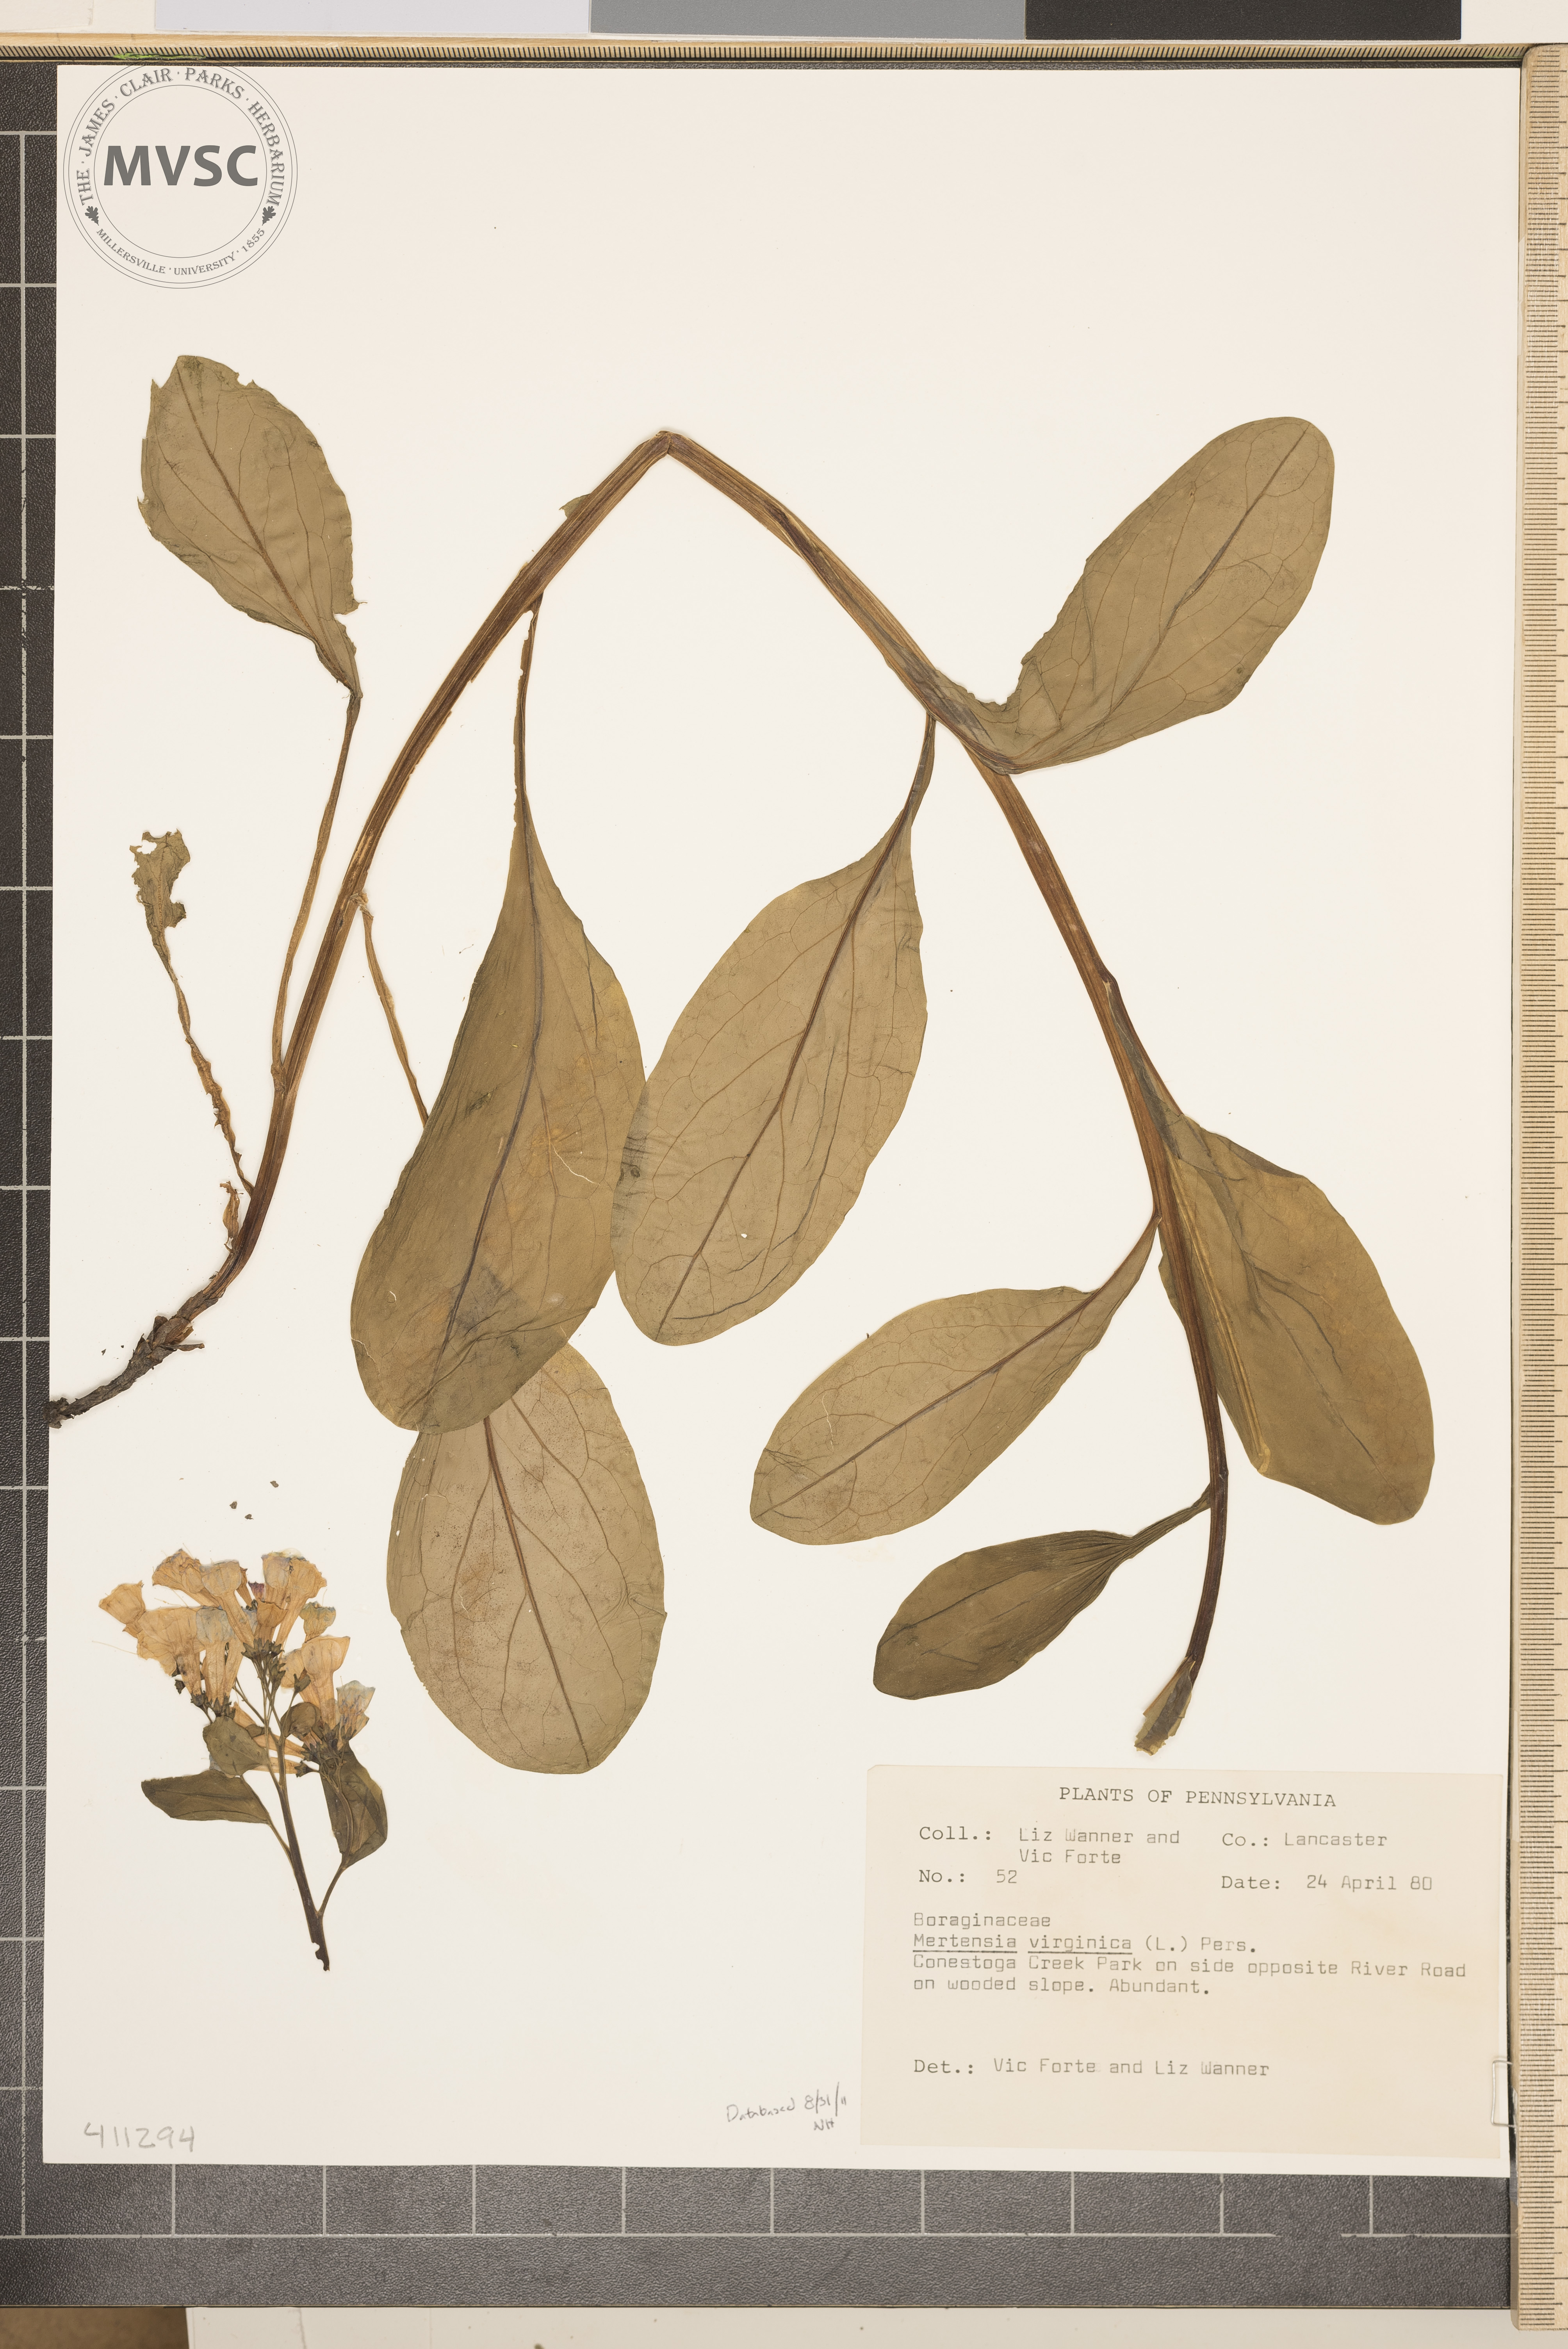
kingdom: Plantae
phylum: Tracheophyta
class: Magnoliopsida
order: Boraginales
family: Boraginaceae
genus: Mertensia
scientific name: Mertensia virginica
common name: Virginia bluebells
